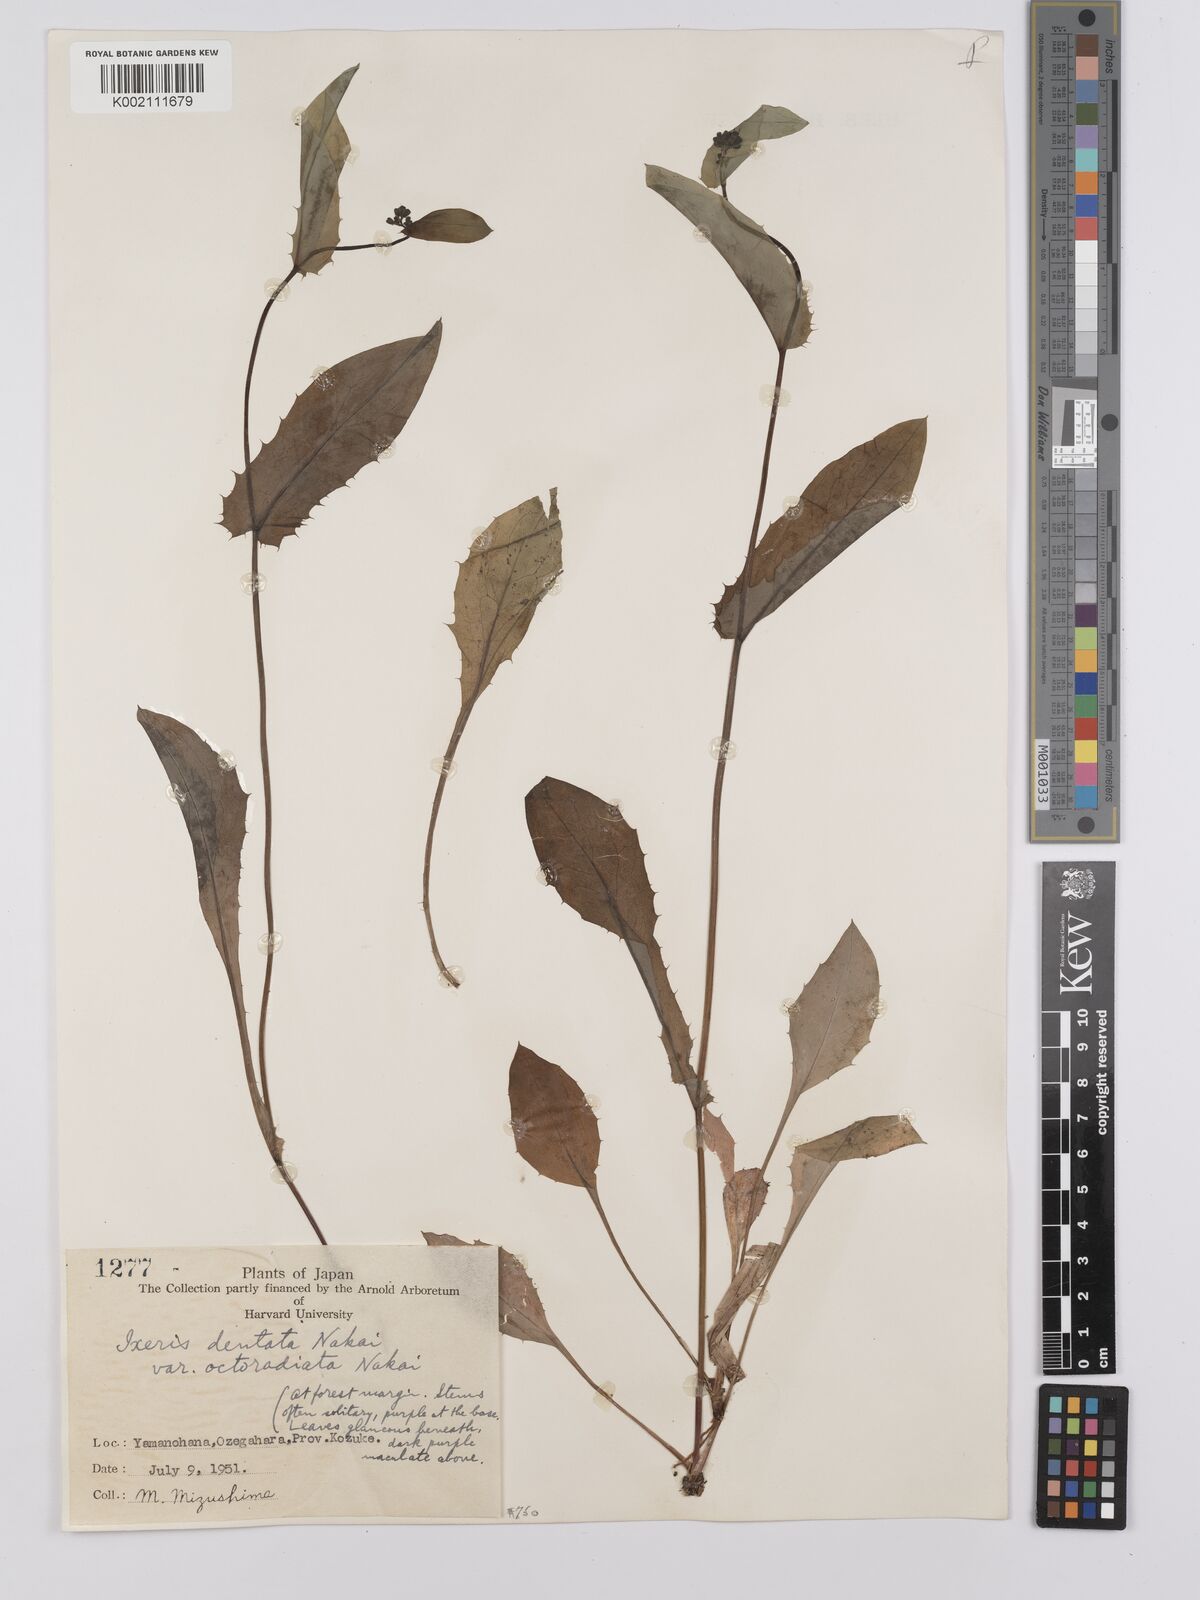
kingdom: Plantae
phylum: Tracheophyta
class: Magnoliopsida
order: Asterales
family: Asteraceae
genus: Ixeridium
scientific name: Ixeridium
